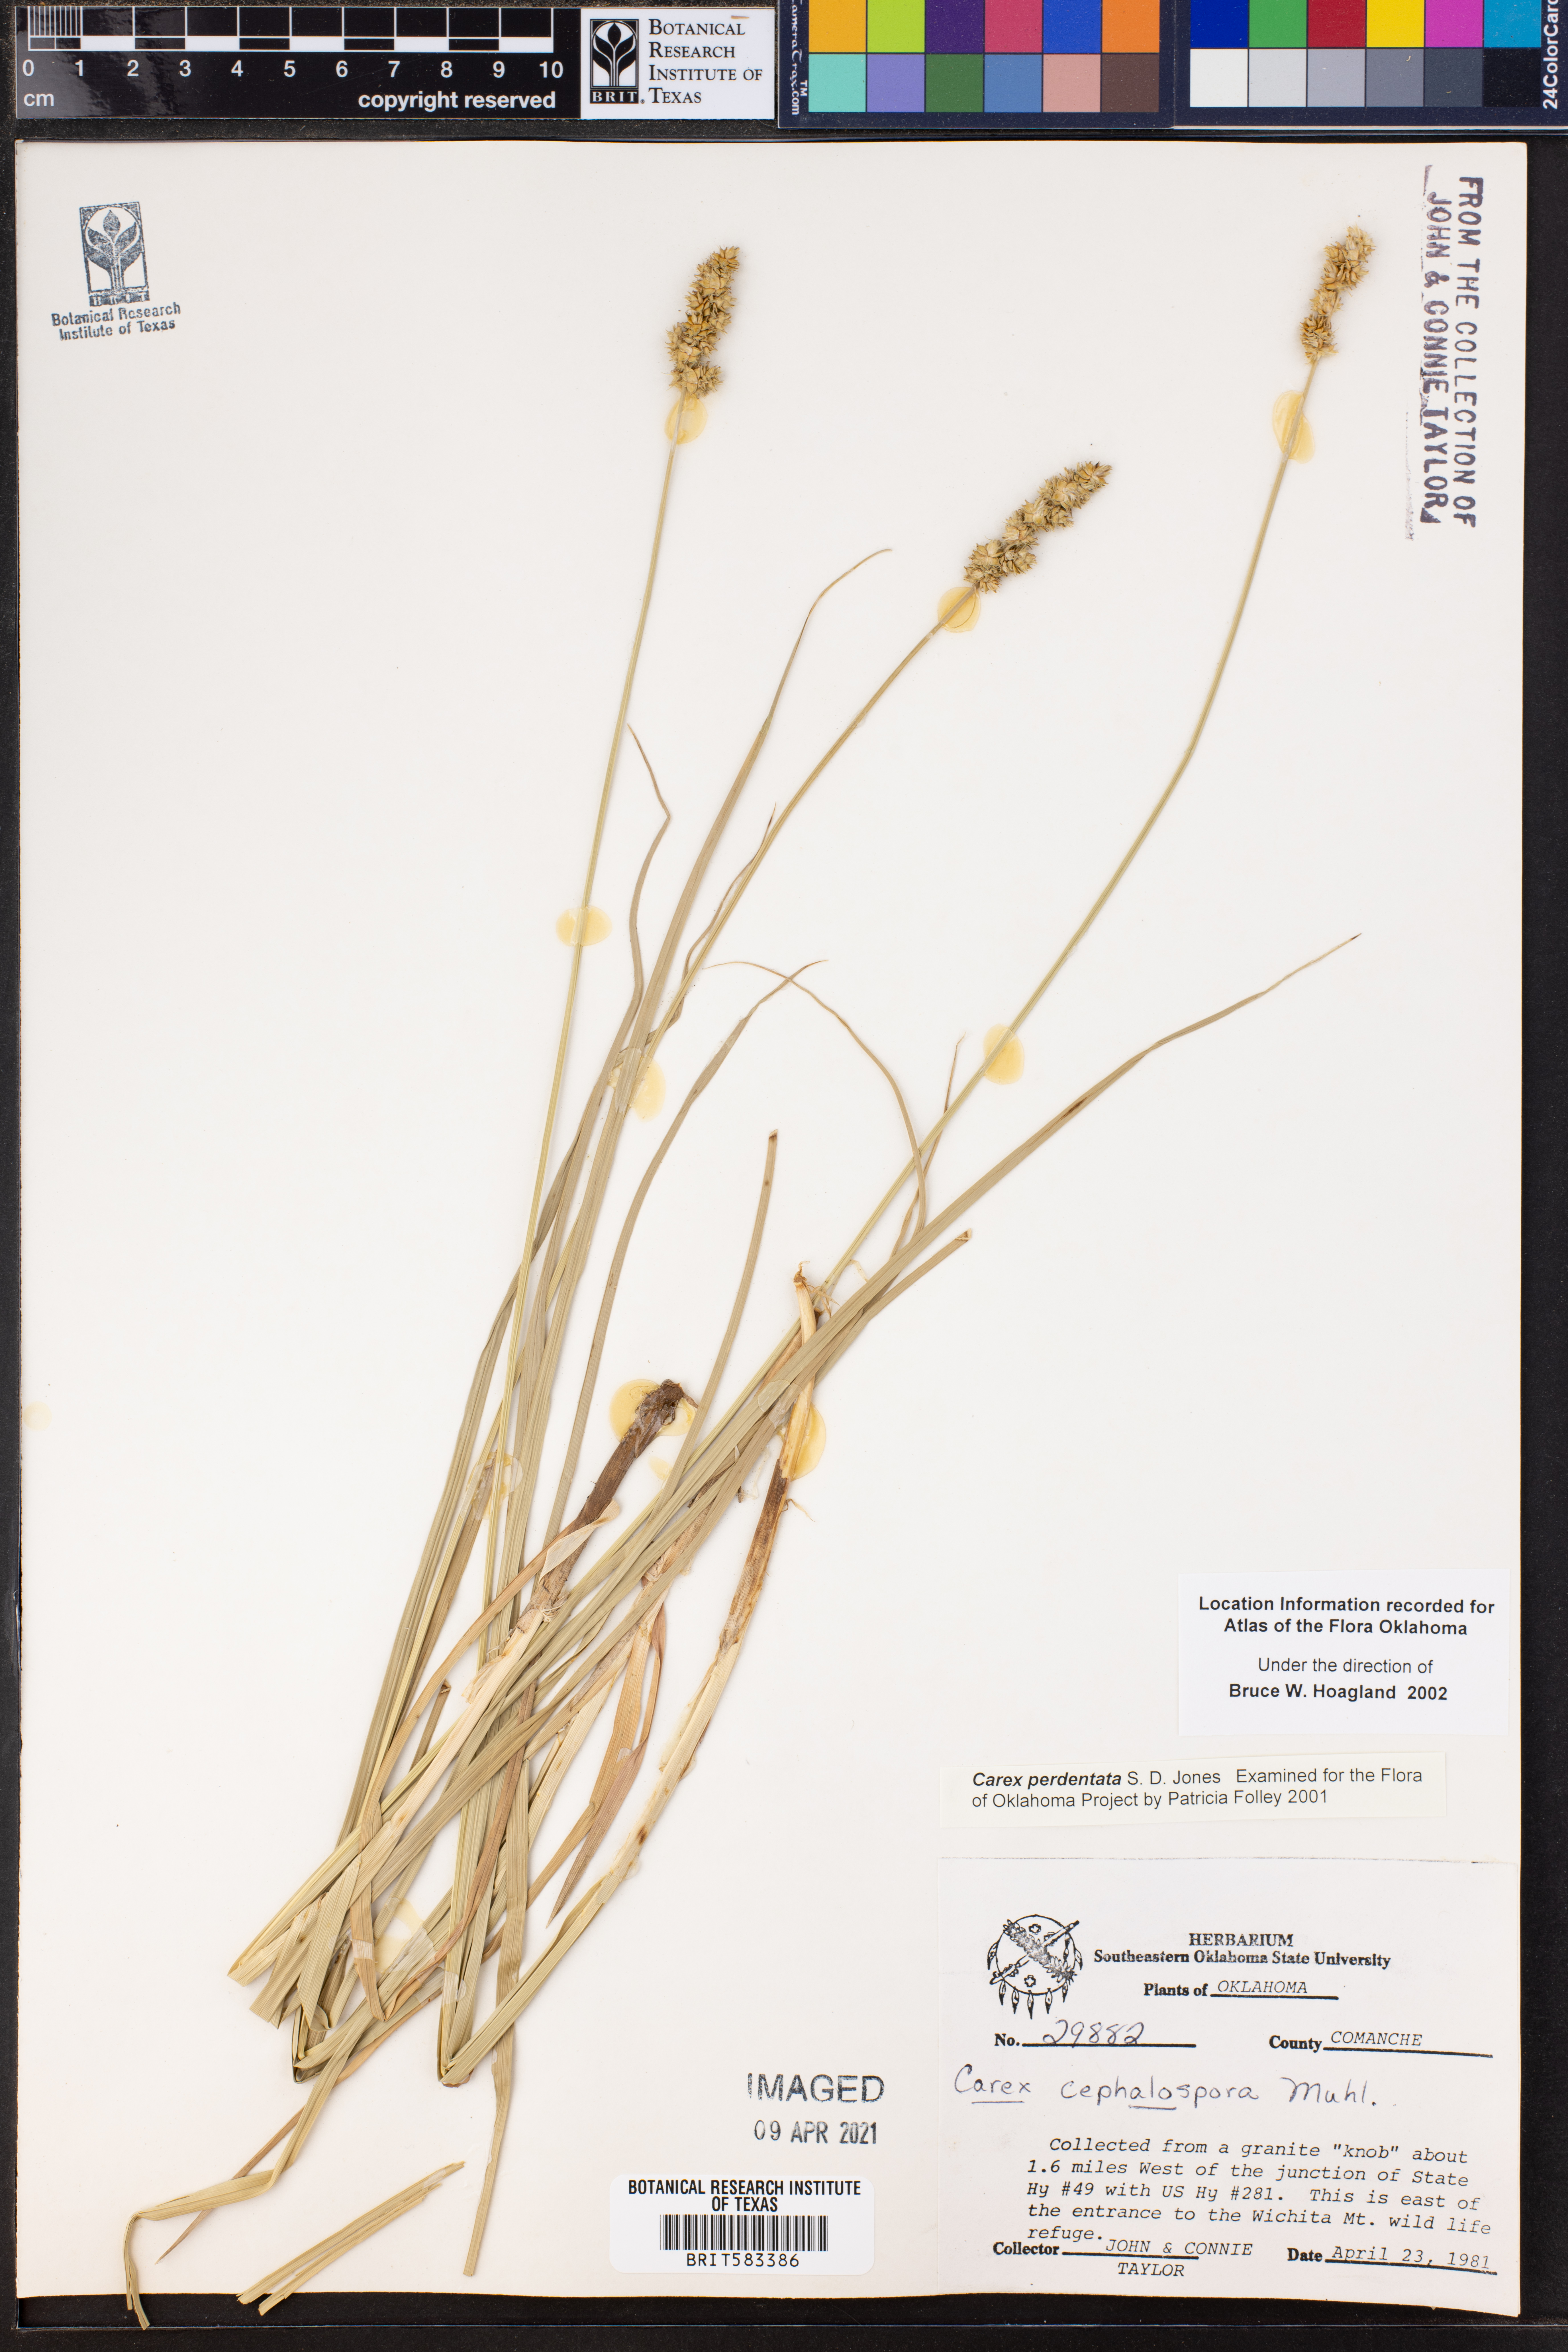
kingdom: Plantae
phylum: Tracheophyta
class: Liliopsida
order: Poales
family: Cyperaceae
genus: Carex
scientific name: Carex perdentata
